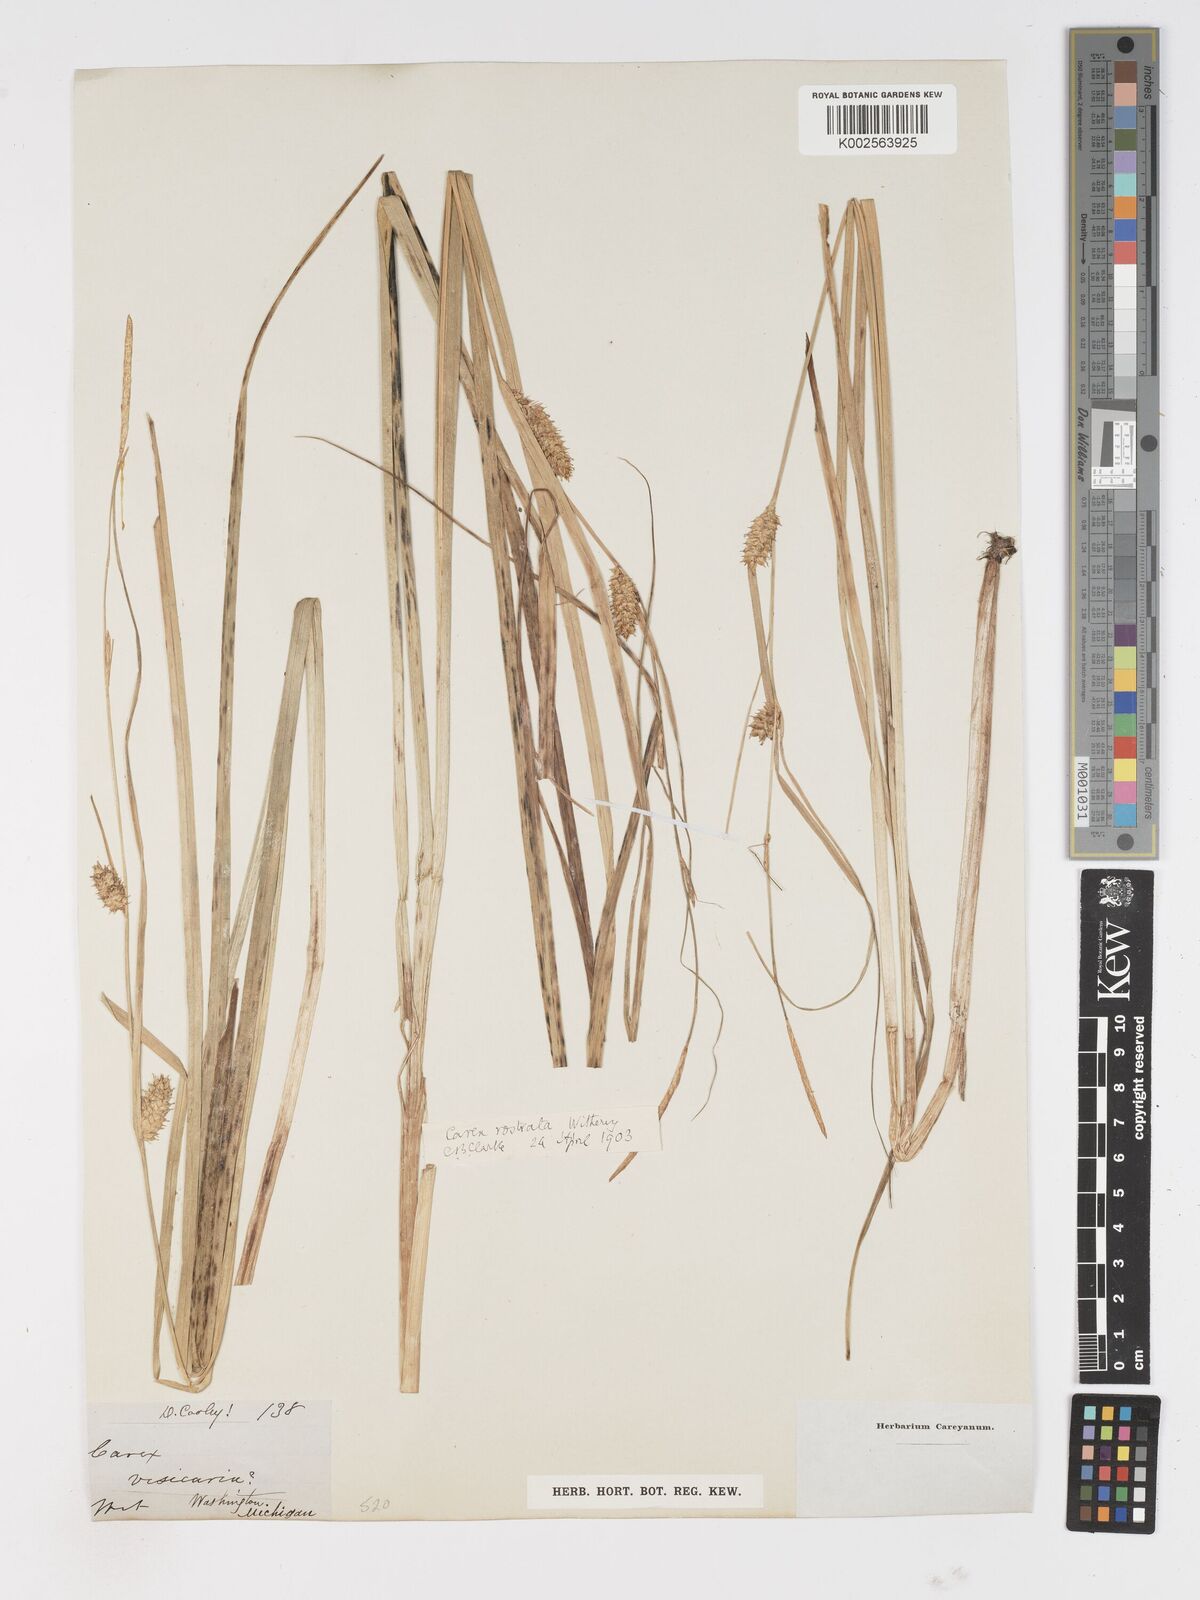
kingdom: Plantae
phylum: Tracheophyta
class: Liliopsida
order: Poales
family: Cyperaceae
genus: Carex
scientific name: Carex rostrata
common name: Bottle sedge
